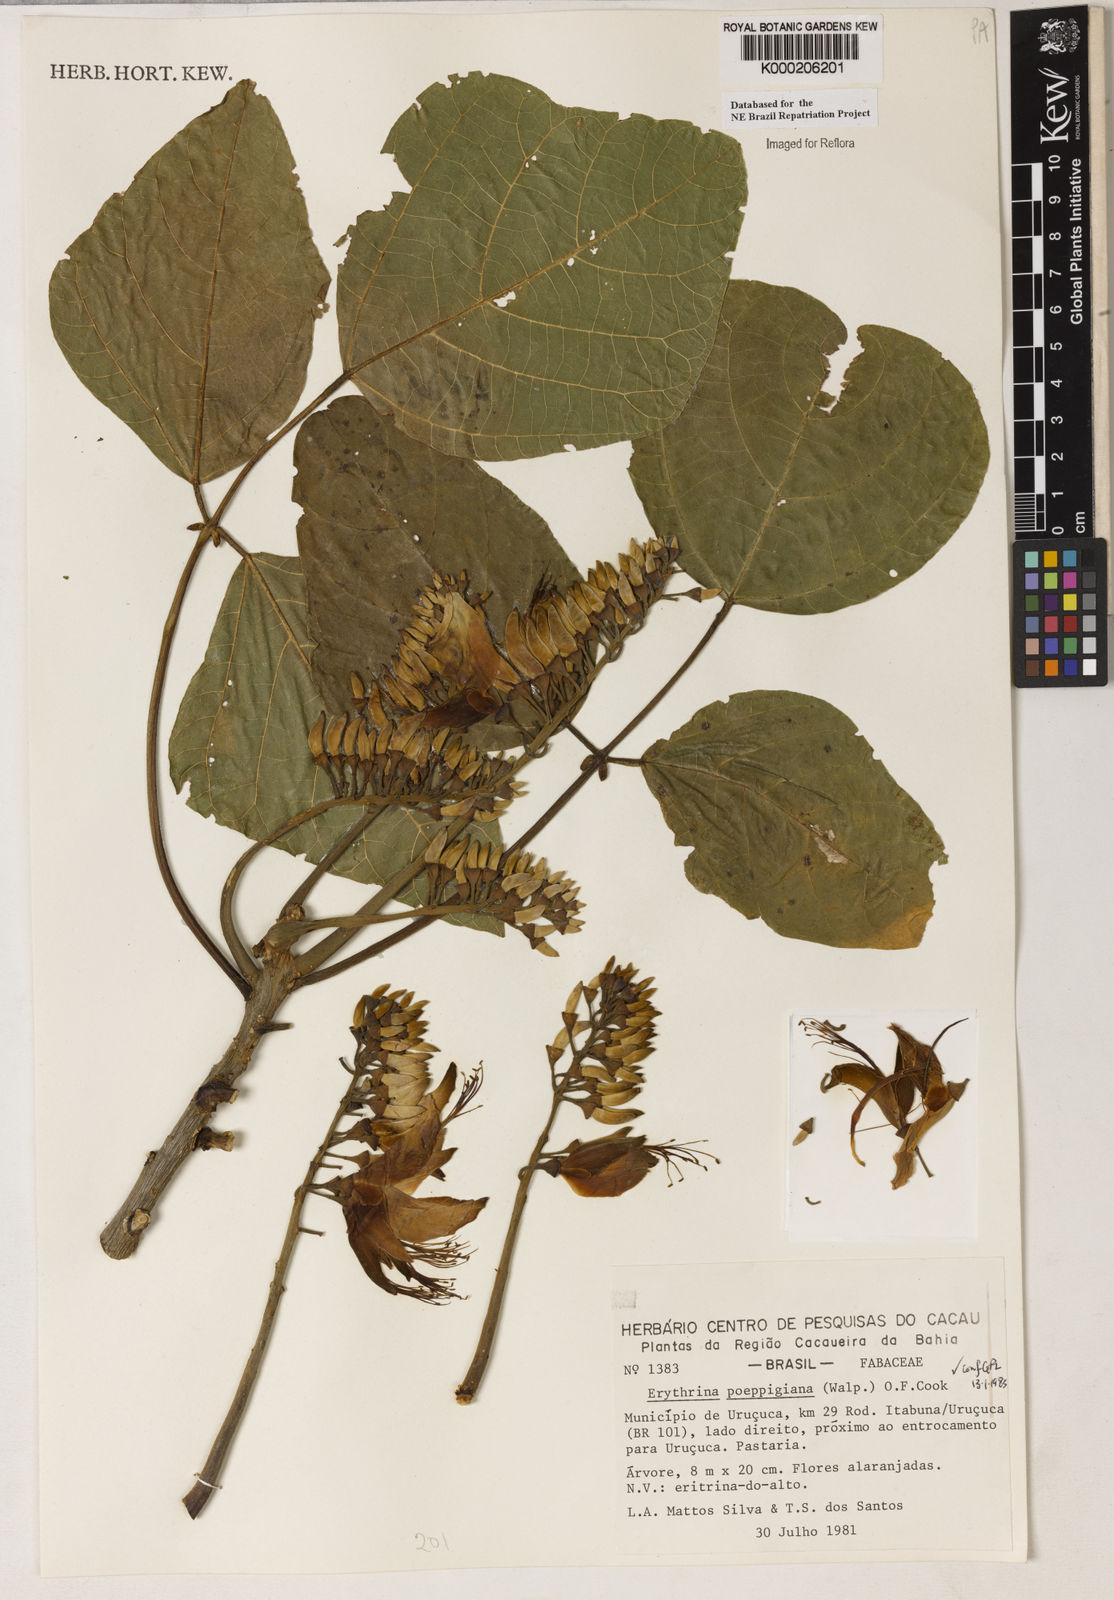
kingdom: Plantae
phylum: Tracheophyta
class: Magnoliopsida
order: Fabales
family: Fabaceae
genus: Erythrina
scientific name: Erythrina poeppigiana
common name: Coral tree
